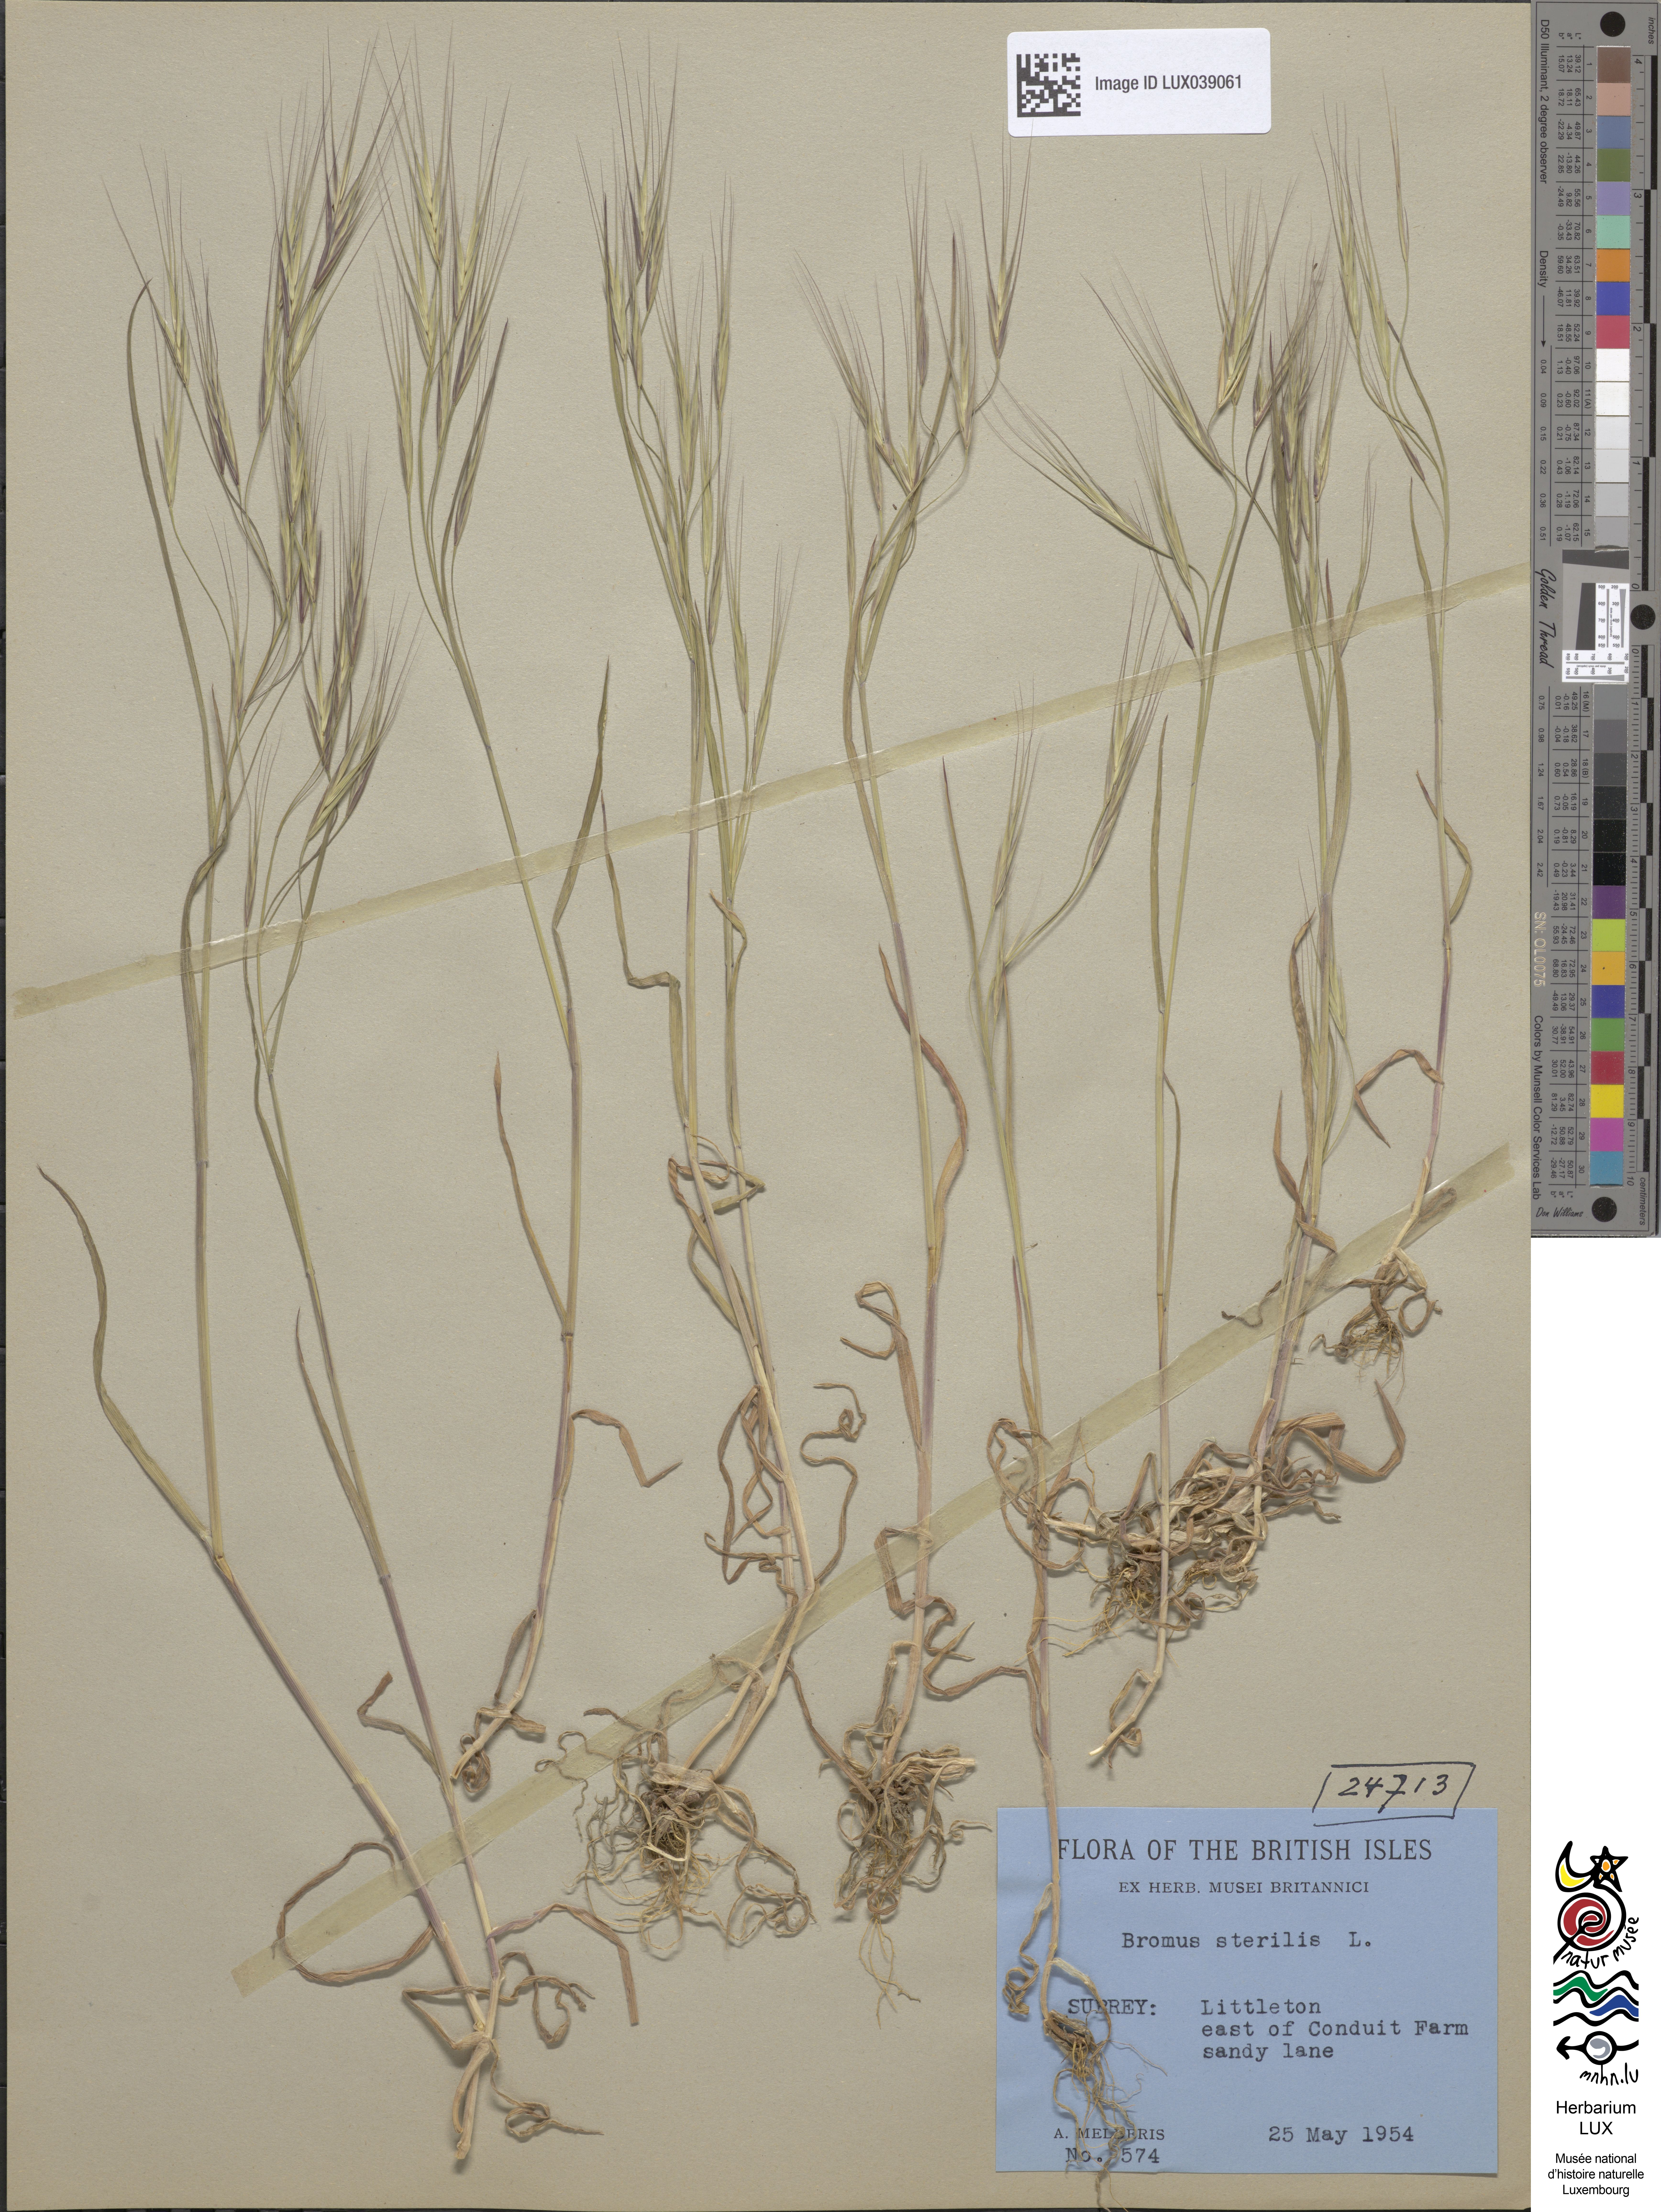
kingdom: Plantae
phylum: Tracheophyta
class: Liliopsida
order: Poales
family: Poaceae
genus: Bromus
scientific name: Bromus sterilis
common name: Poverty brome
